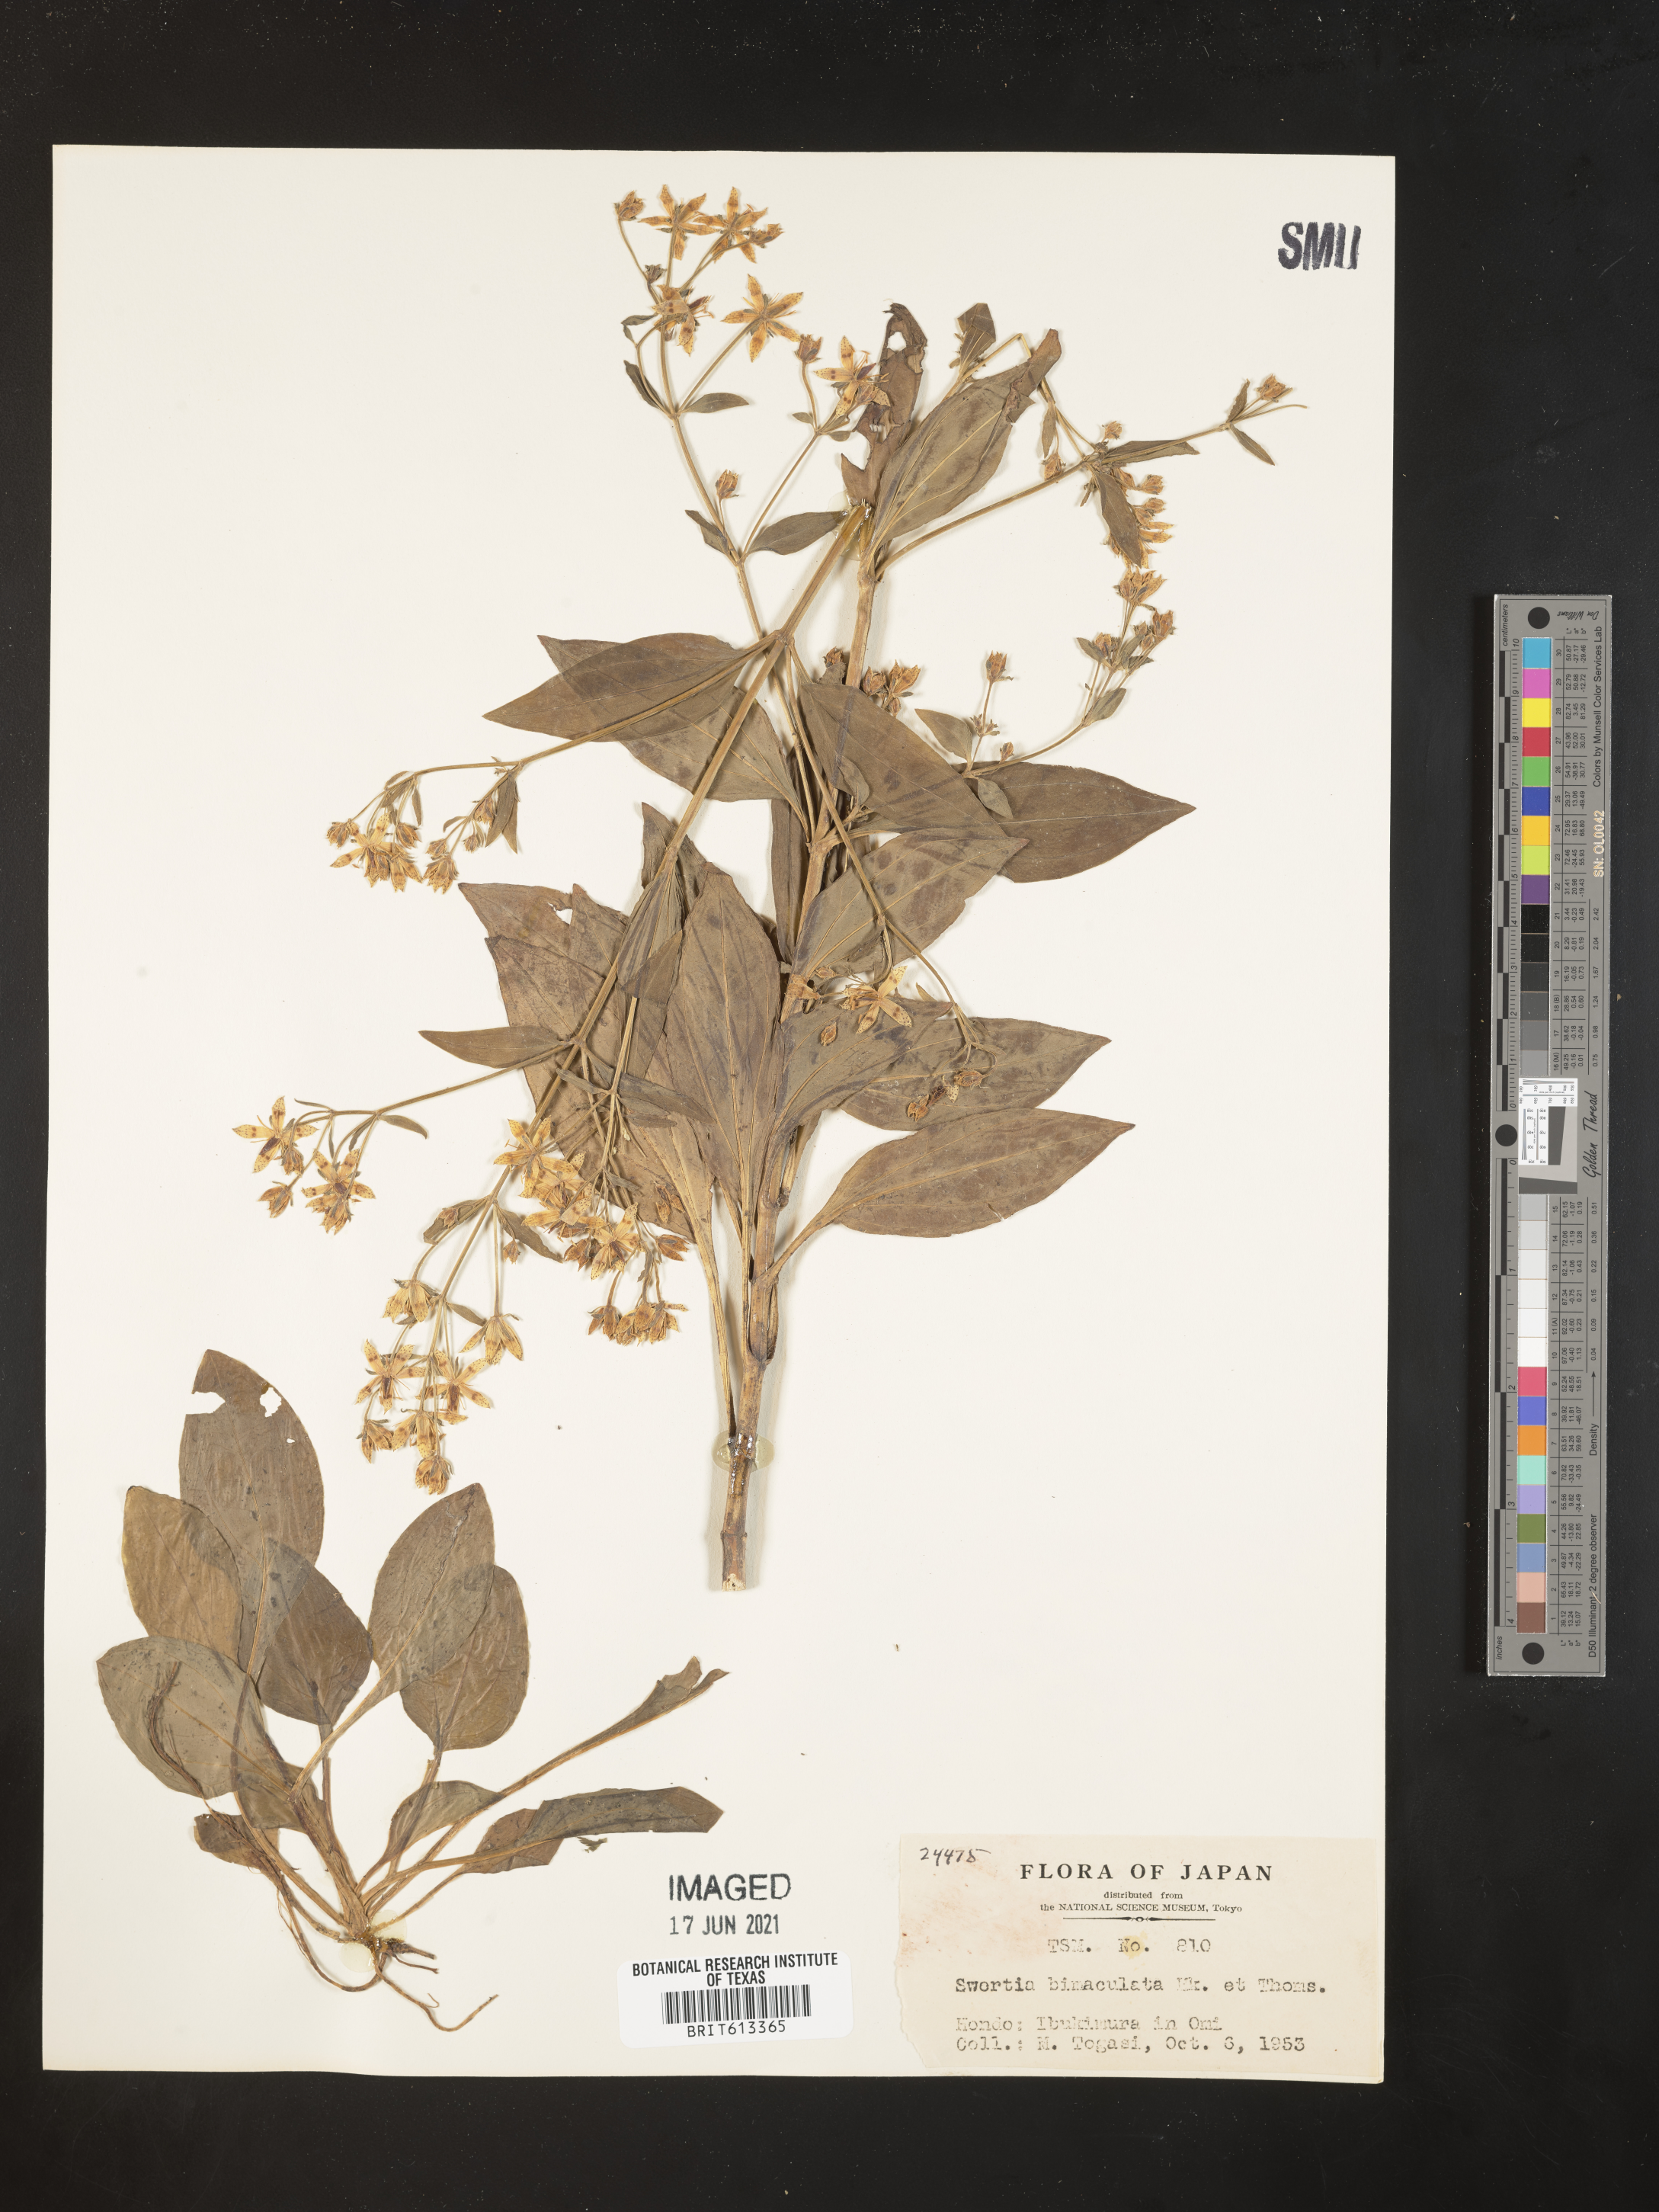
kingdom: Plantae
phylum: Tracheophyta
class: Magnoliopsida
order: Gentianales
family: Gentianaceae
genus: Swertia
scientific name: Swertia bimaculata
